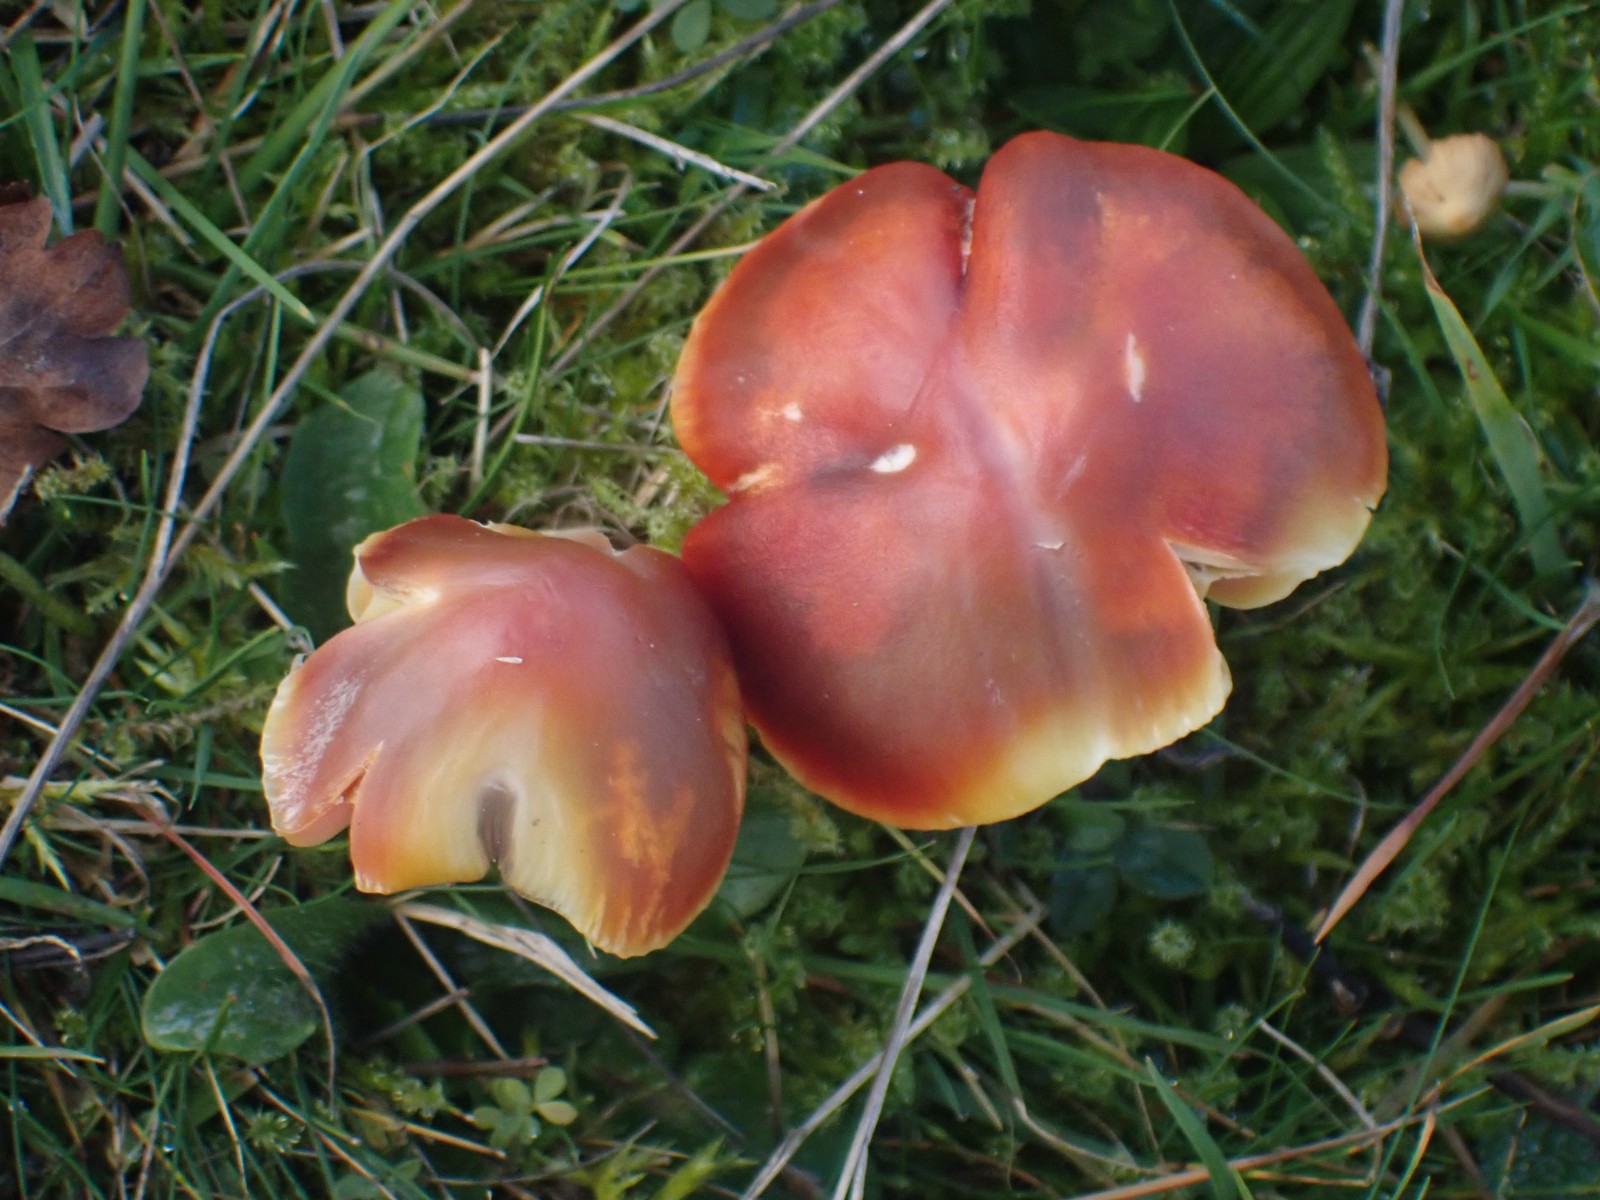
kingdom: Fungi
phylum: Basidiomycota
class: Agaricomycetes
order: Agaricales
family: Hygrophoraceae
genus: Hygrocybe
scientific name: Hygrocybe punicea
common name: skarlagen-vokshat
